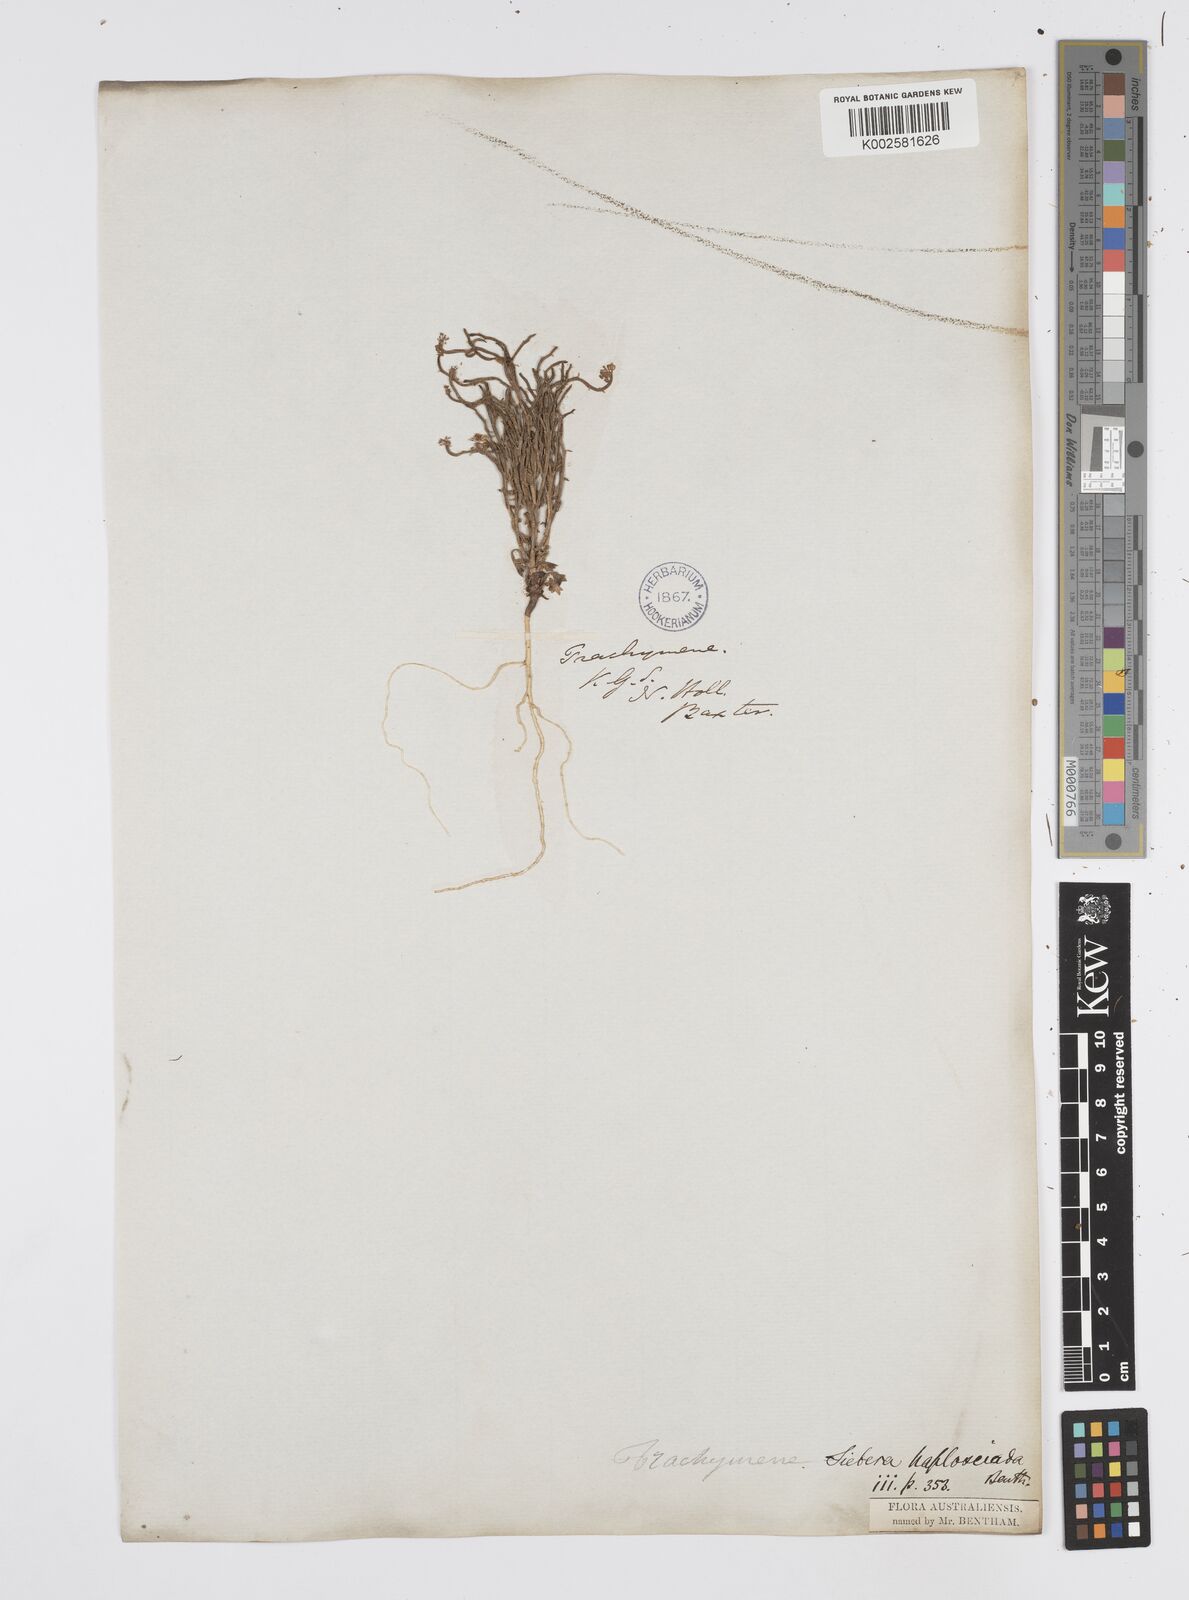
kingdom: Plantae
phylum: Tracheophyta
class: Magnoliopsida
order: Apiales
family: Apiaceae
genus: Platysace
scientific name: Platysace haplosciadia
